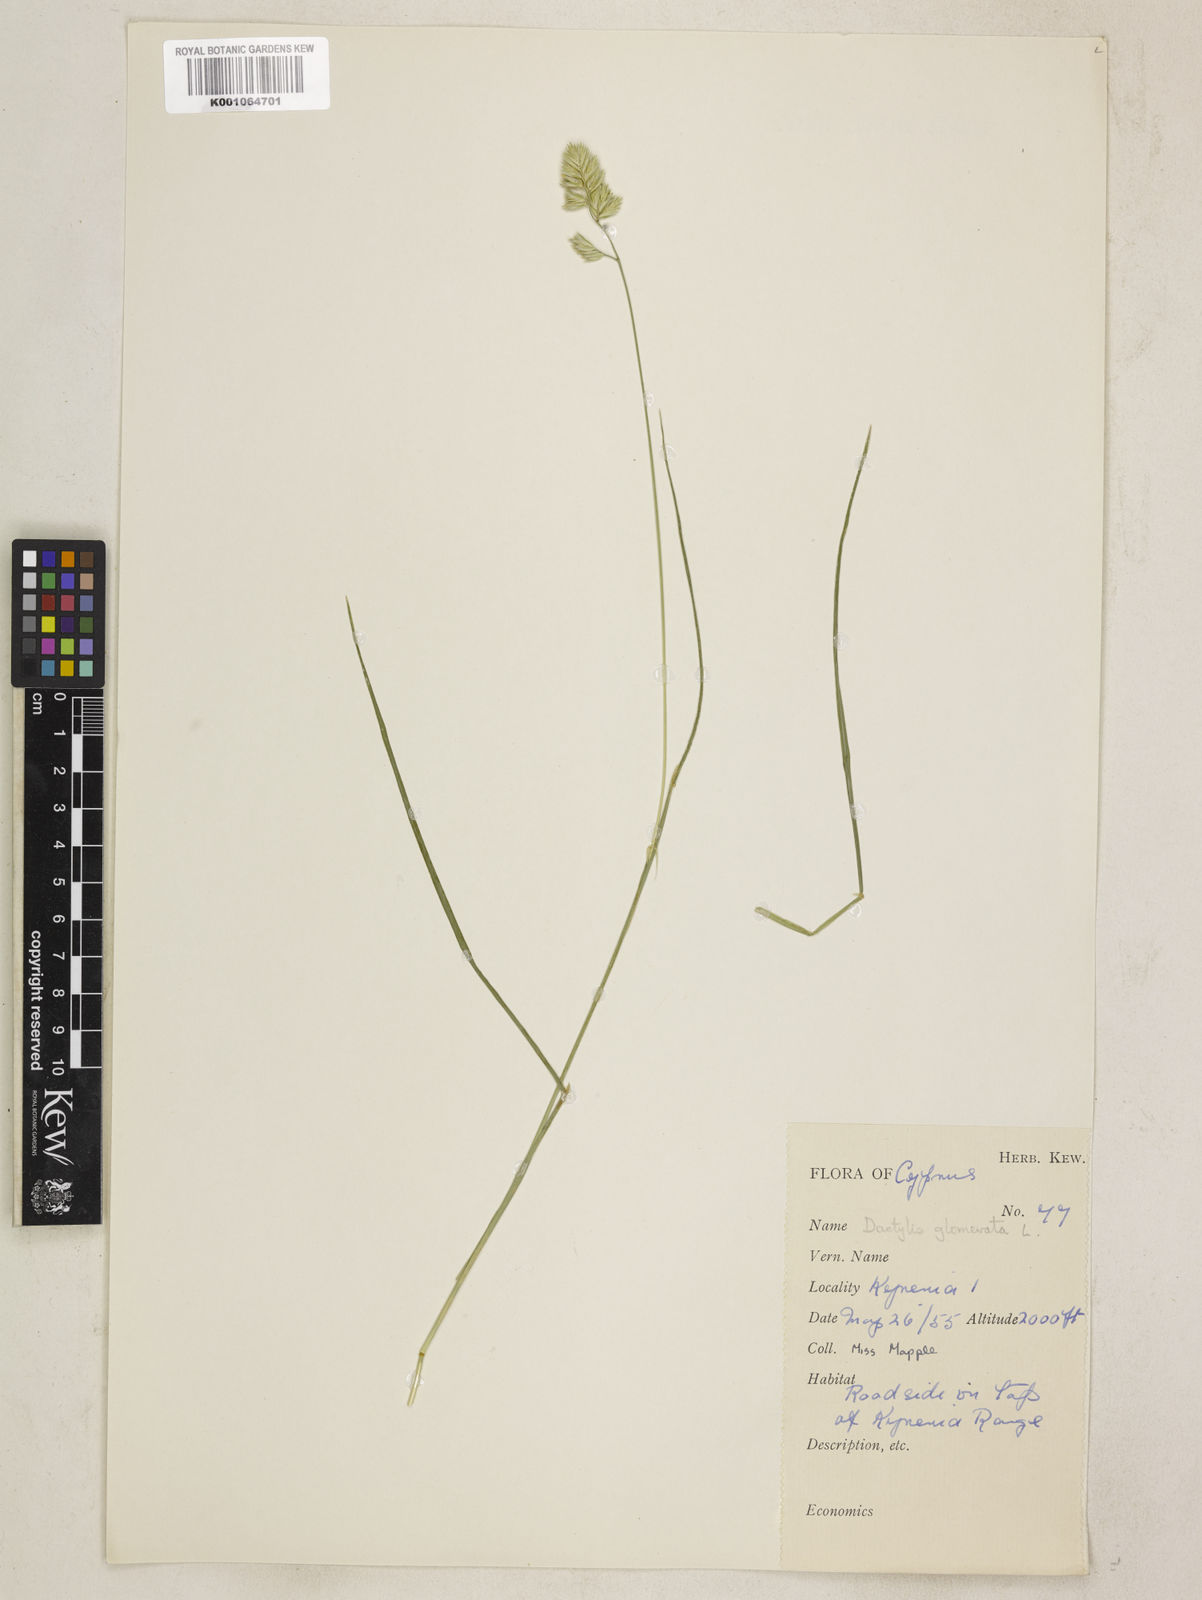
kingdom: Plantae
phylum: Tracheophyta
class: Liliopsida
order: Poales
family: Poaceae
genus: Dactylis
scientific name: Dactylis glomerata
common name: Orchardgrass
